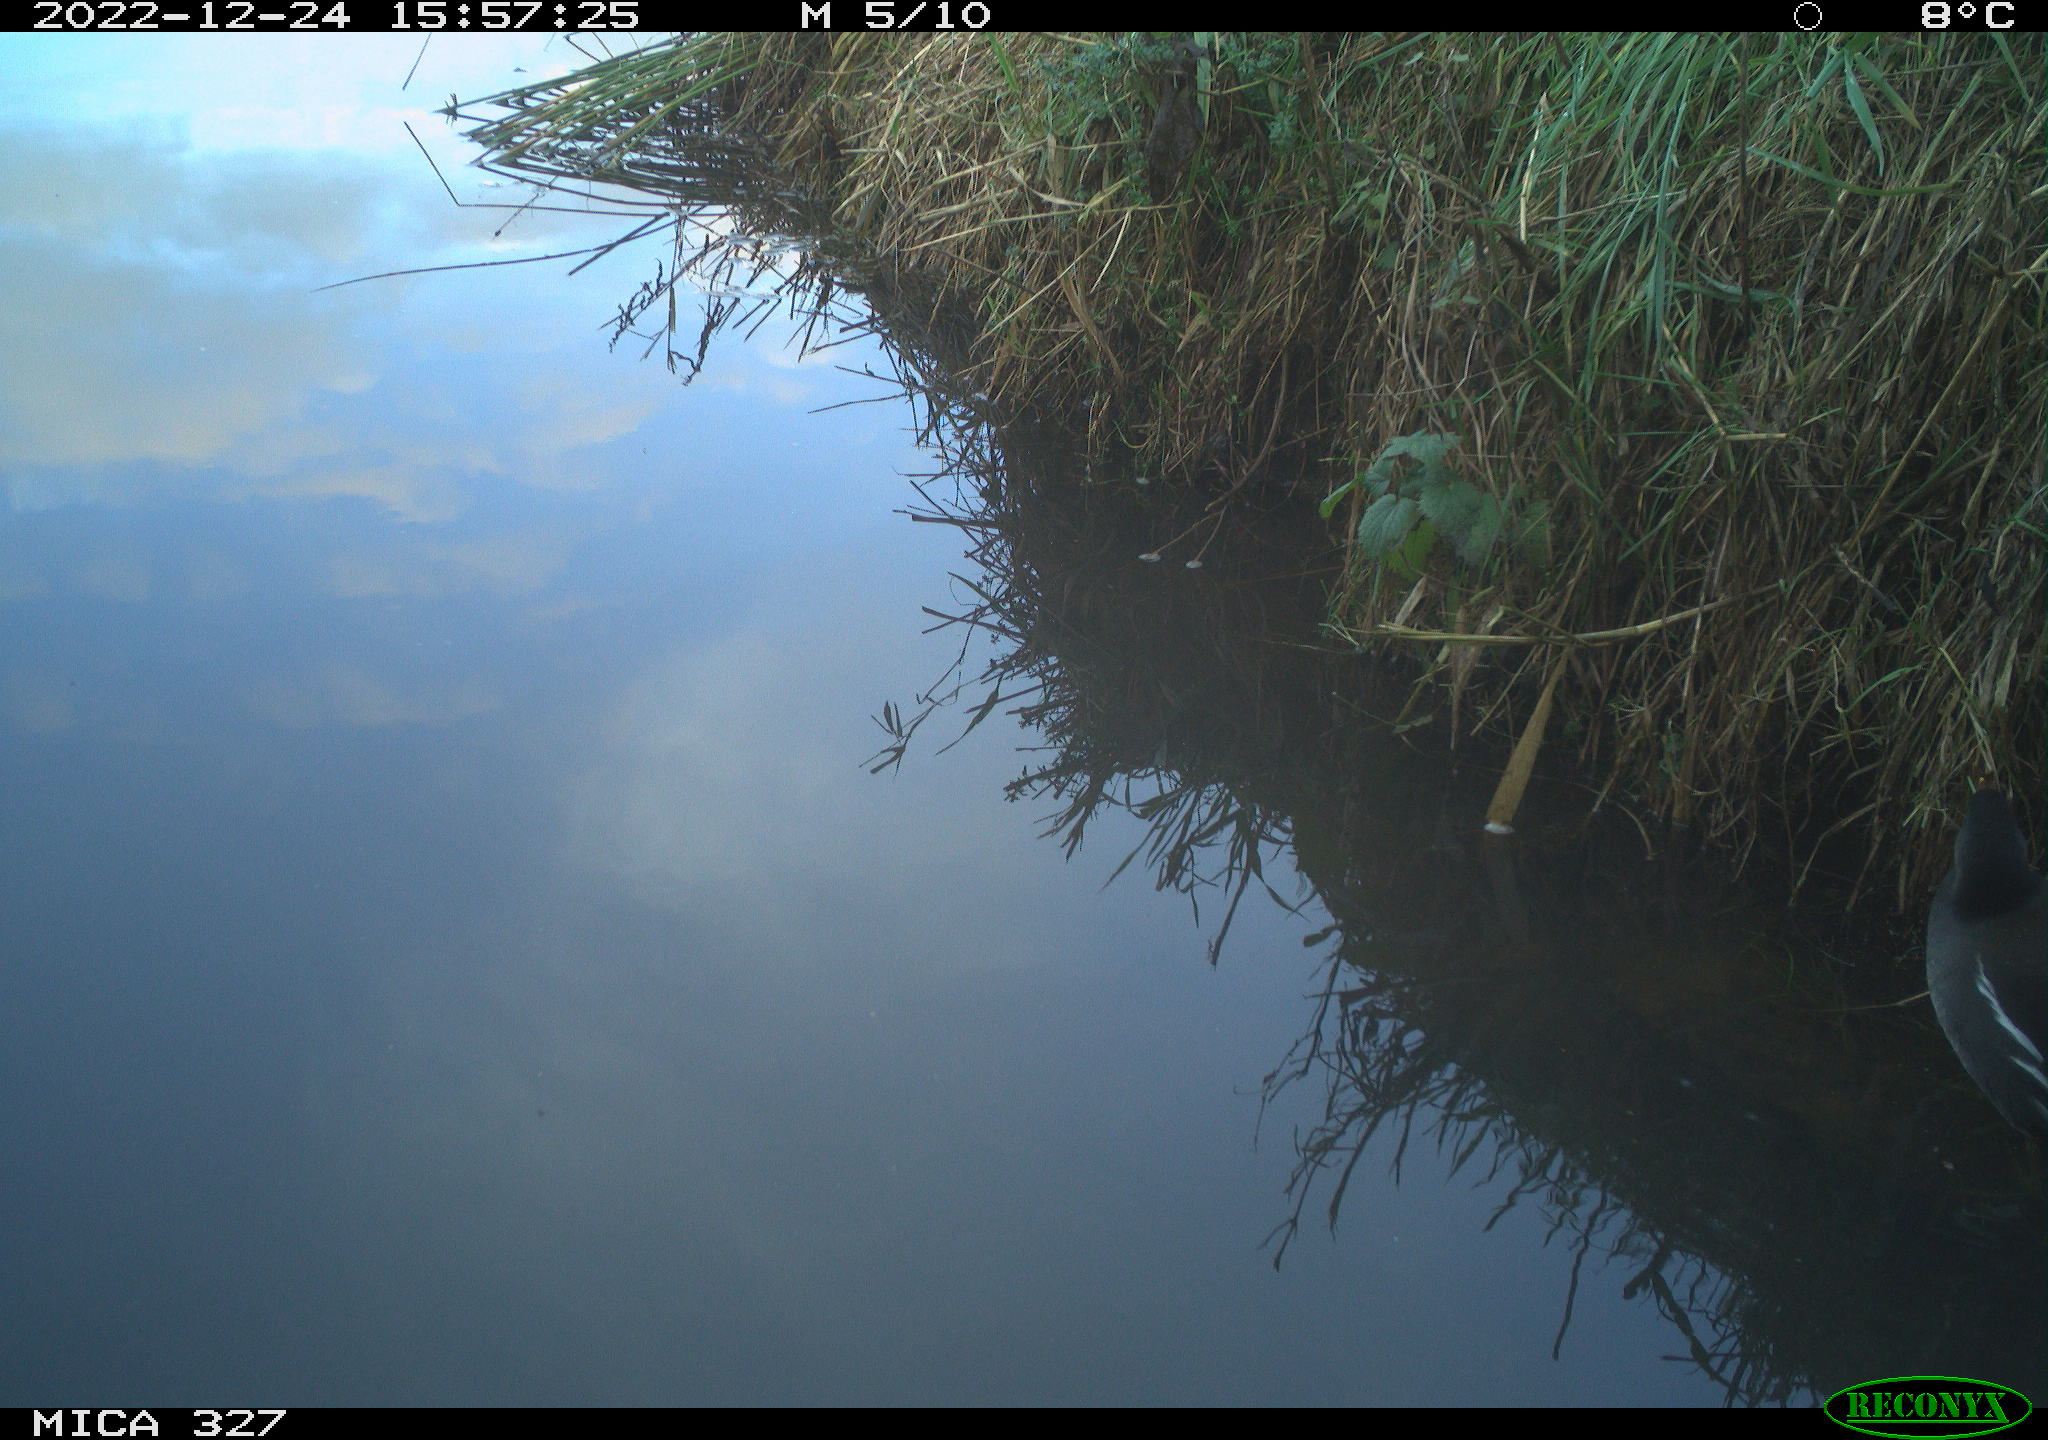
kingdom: Animalia
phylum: Chordata
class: Aves
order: Gruiformes
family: Rallidae
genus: Gallinula
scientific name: Gallinula chloropus
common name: Common moorhen
